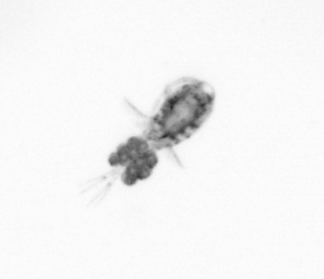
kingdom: Animalia
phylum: Arthropoda
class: Copepoda
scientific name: Copepoda
